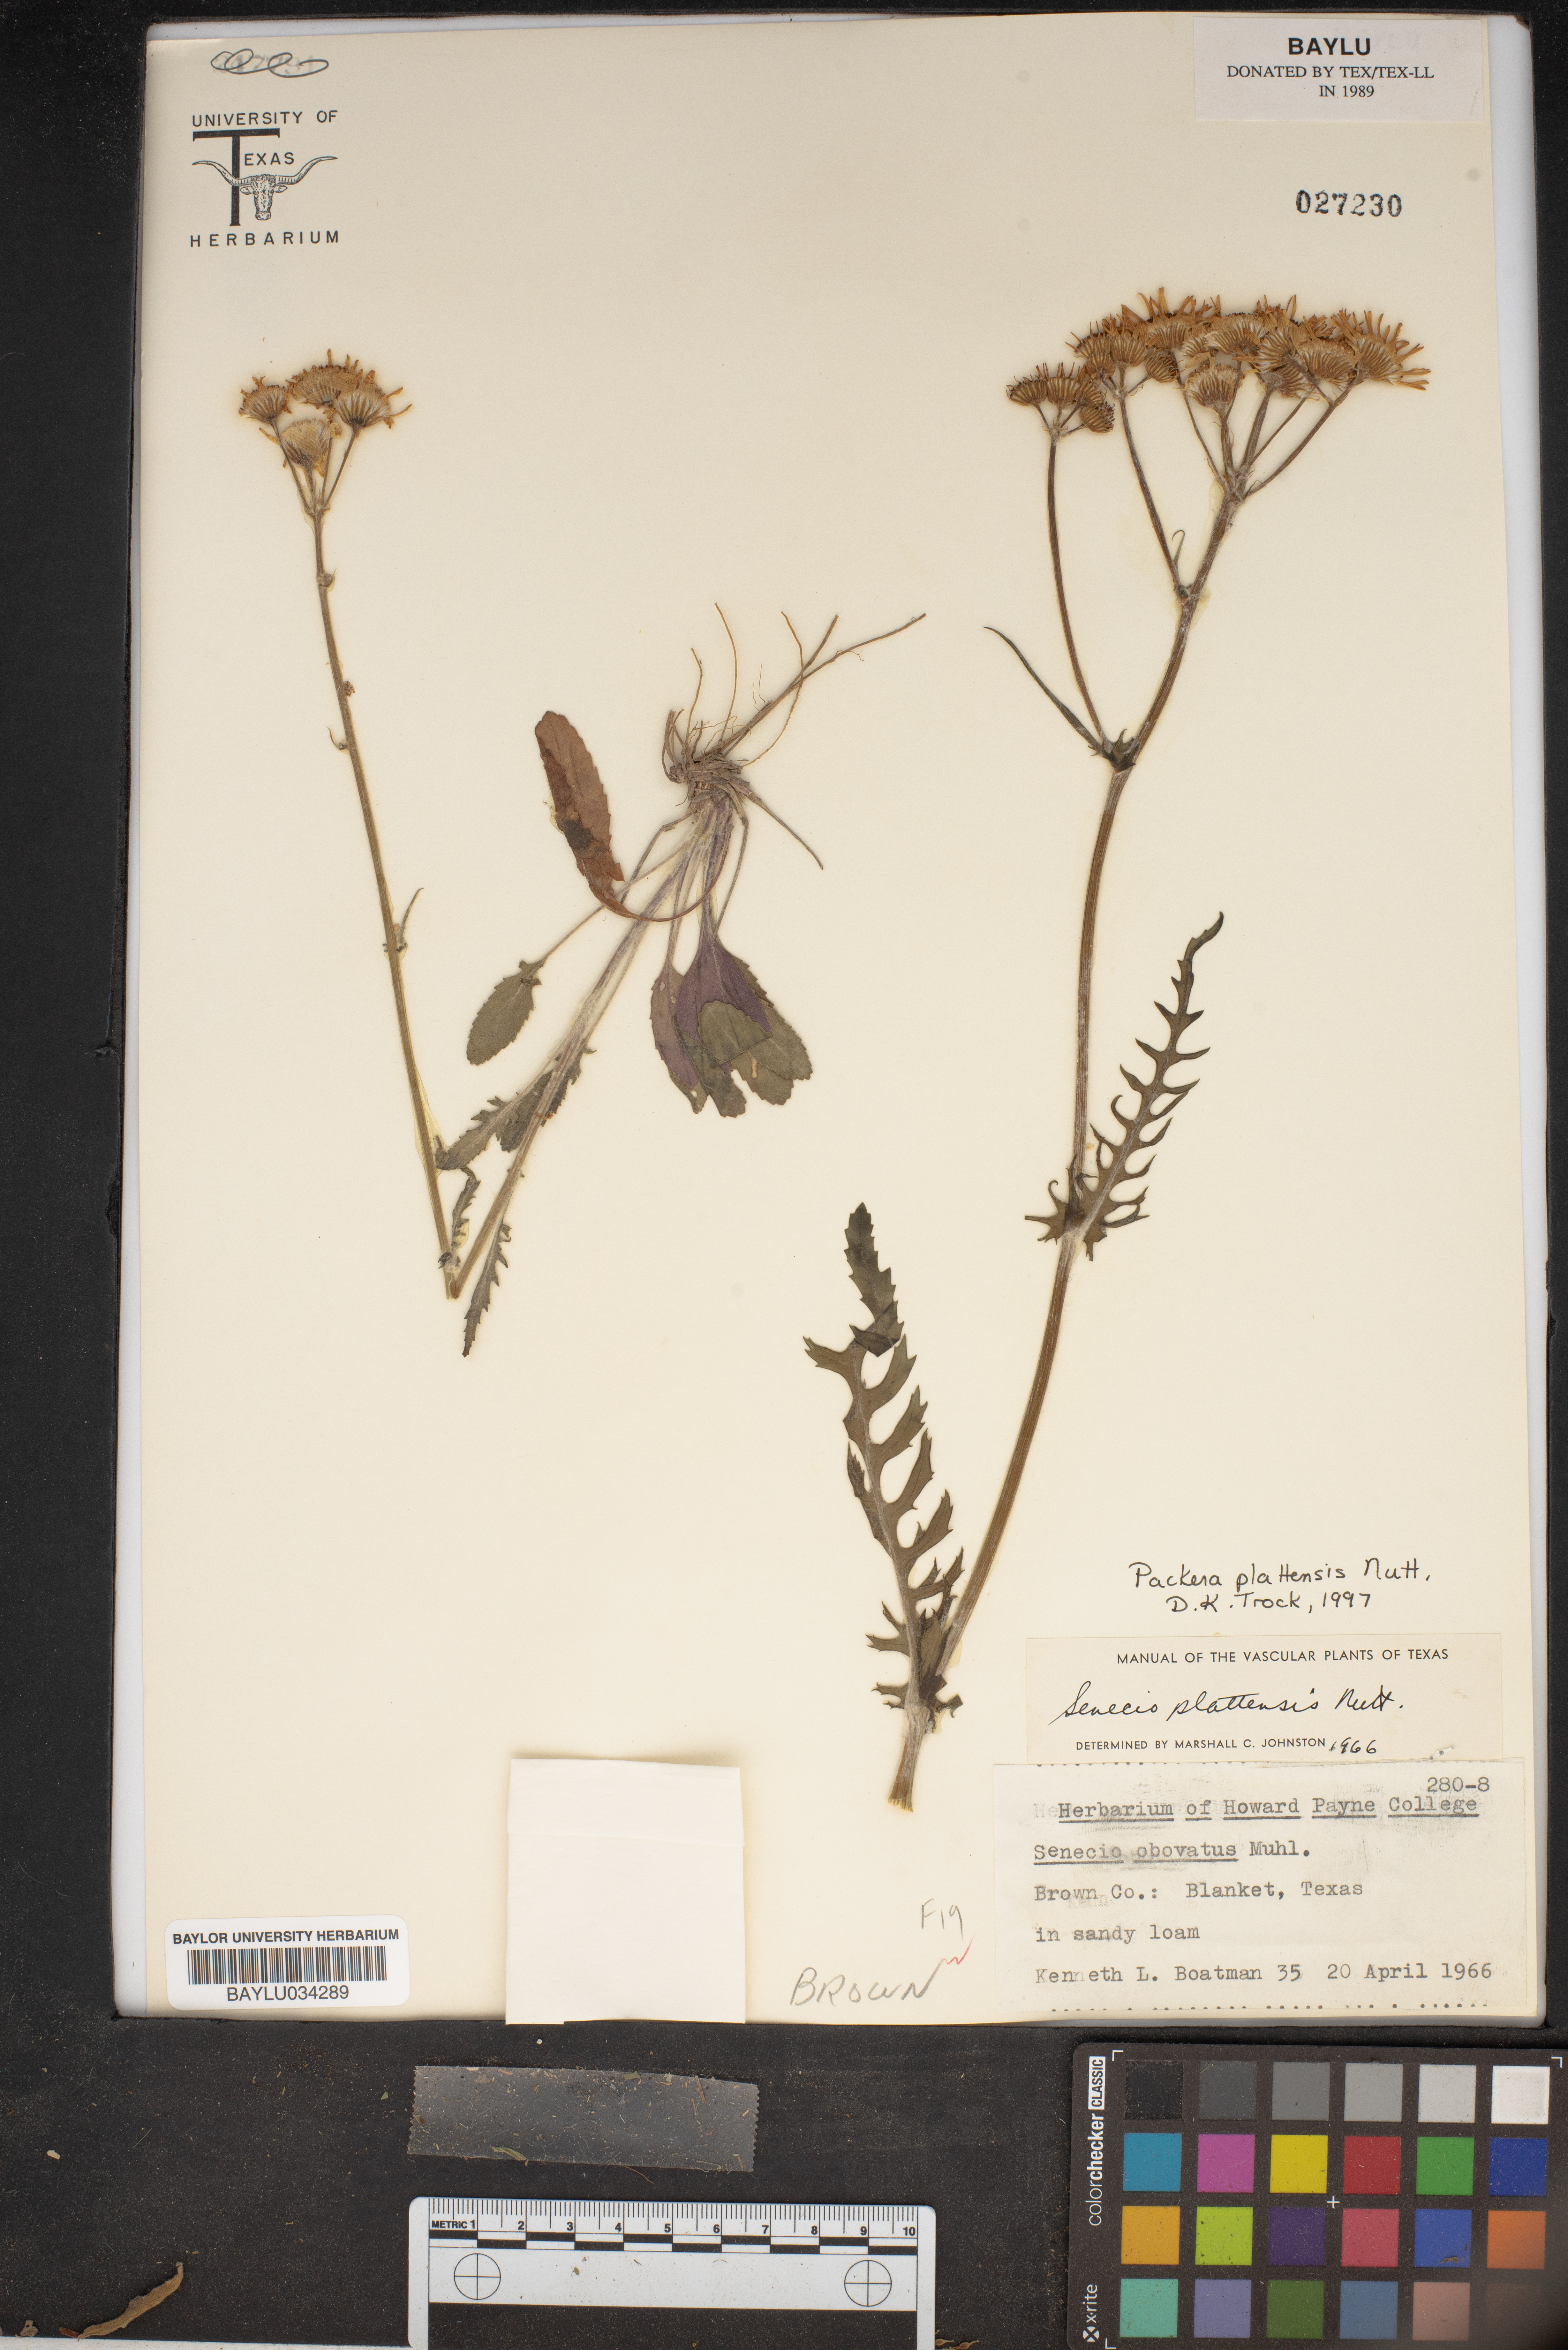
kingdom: Plantae
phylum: Tracheophyta
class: Magnoliopsida
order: Asterales
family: Asteraceae
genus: Packera
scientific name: Packera plattensis
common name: Prairie groundsel
